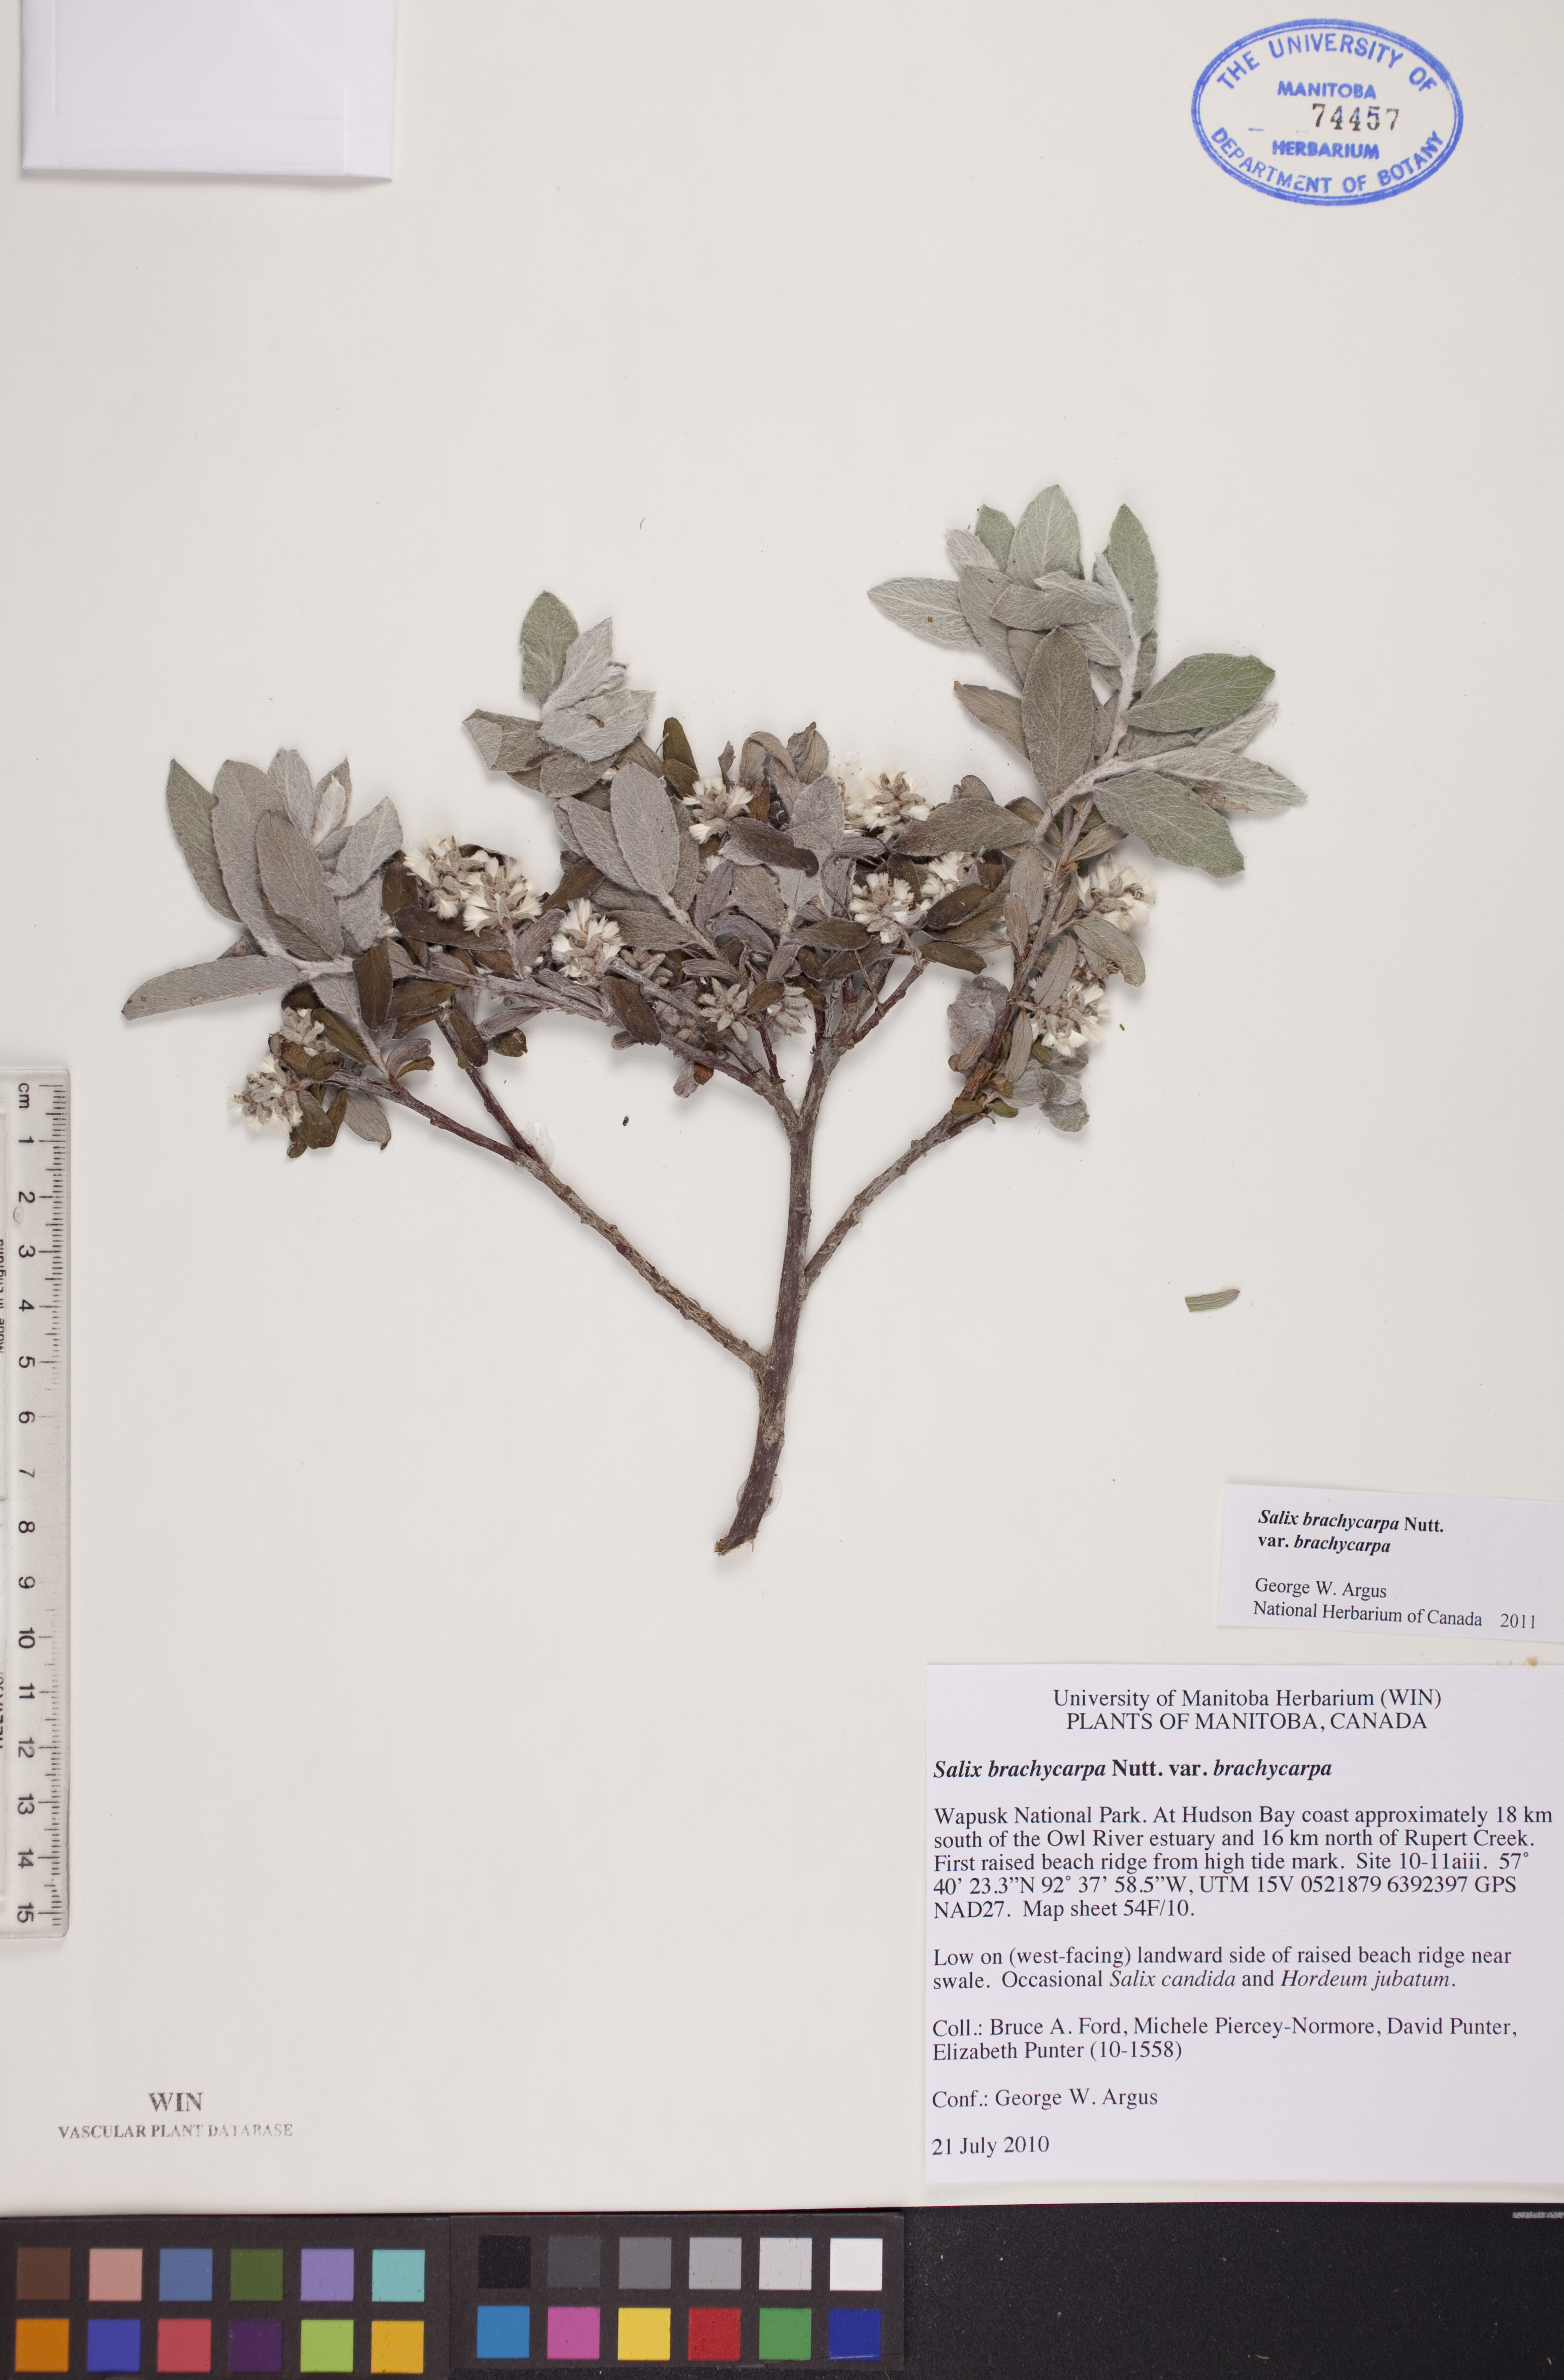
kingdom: Plantae
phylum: Tracheophyta
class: Magnoliopsida
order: Malpighiales
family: Salicaceae
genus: Salix
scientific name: Salix brachycarpa
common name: Barren-ground willow
